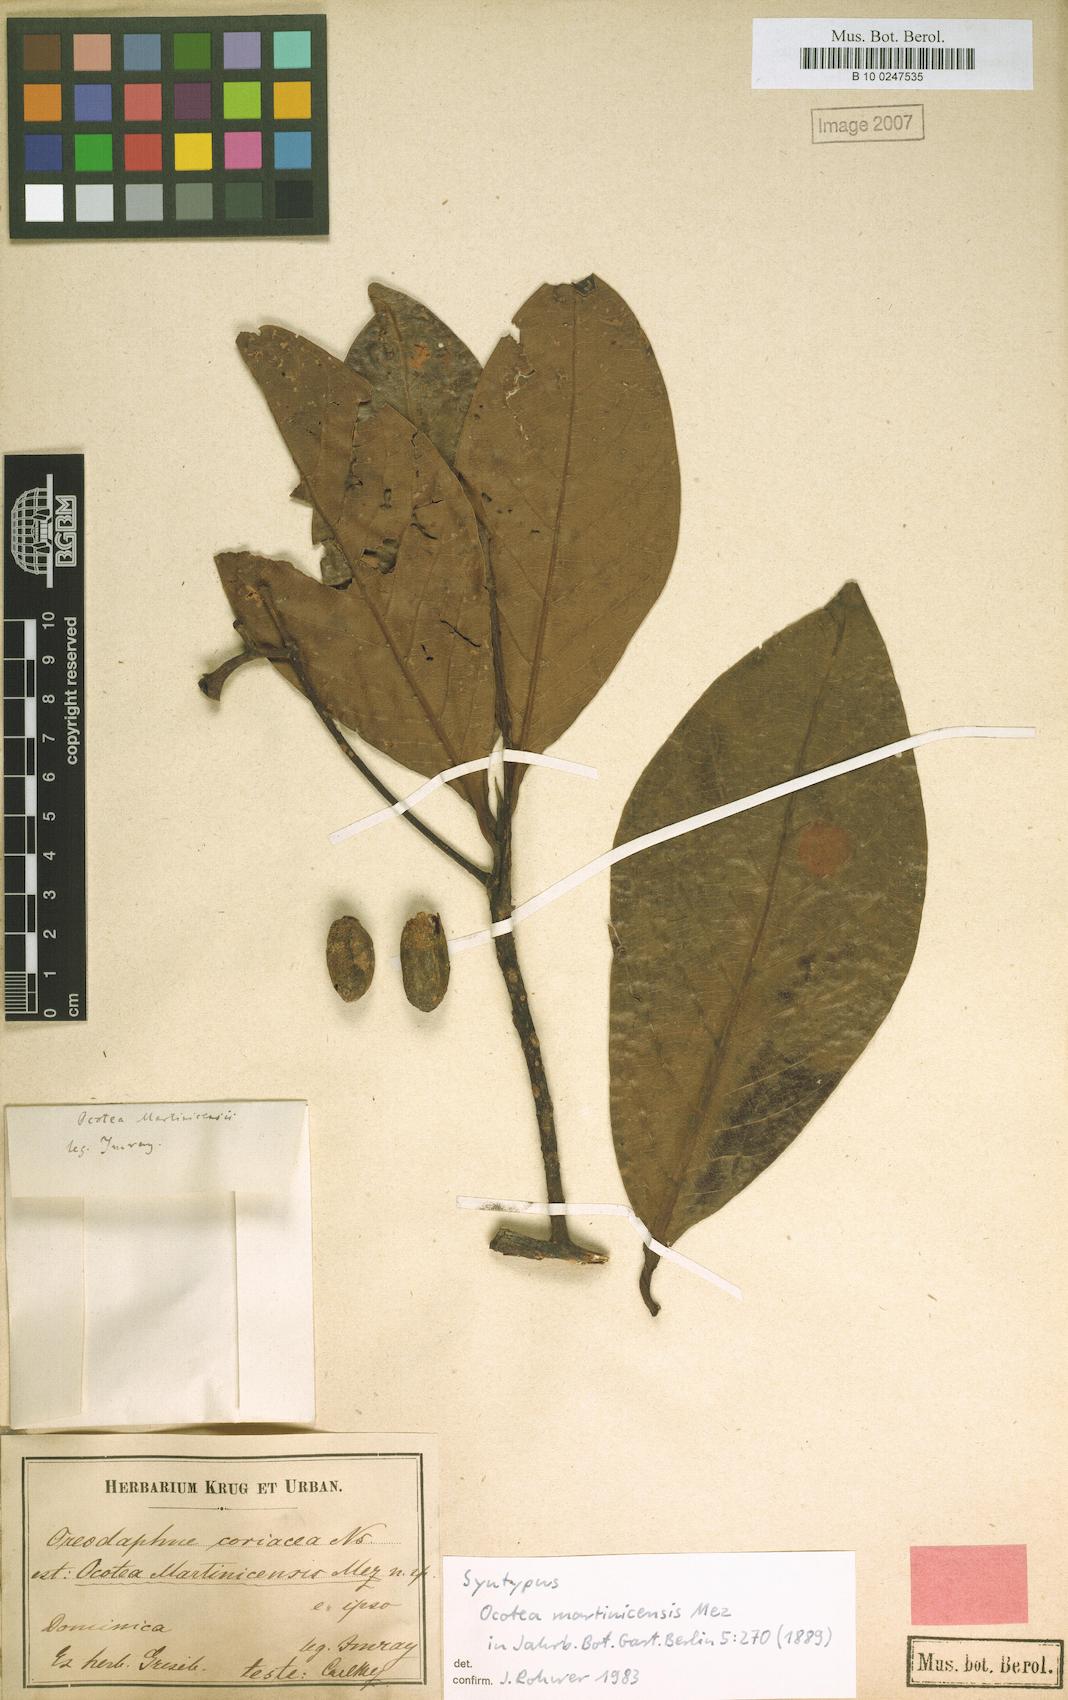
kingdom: Plantae
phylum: Tracheophyta
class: Magnoliopsida
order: Laurales
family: Lauraceae
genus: Ocotea
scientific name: Ocotea martinicensis
